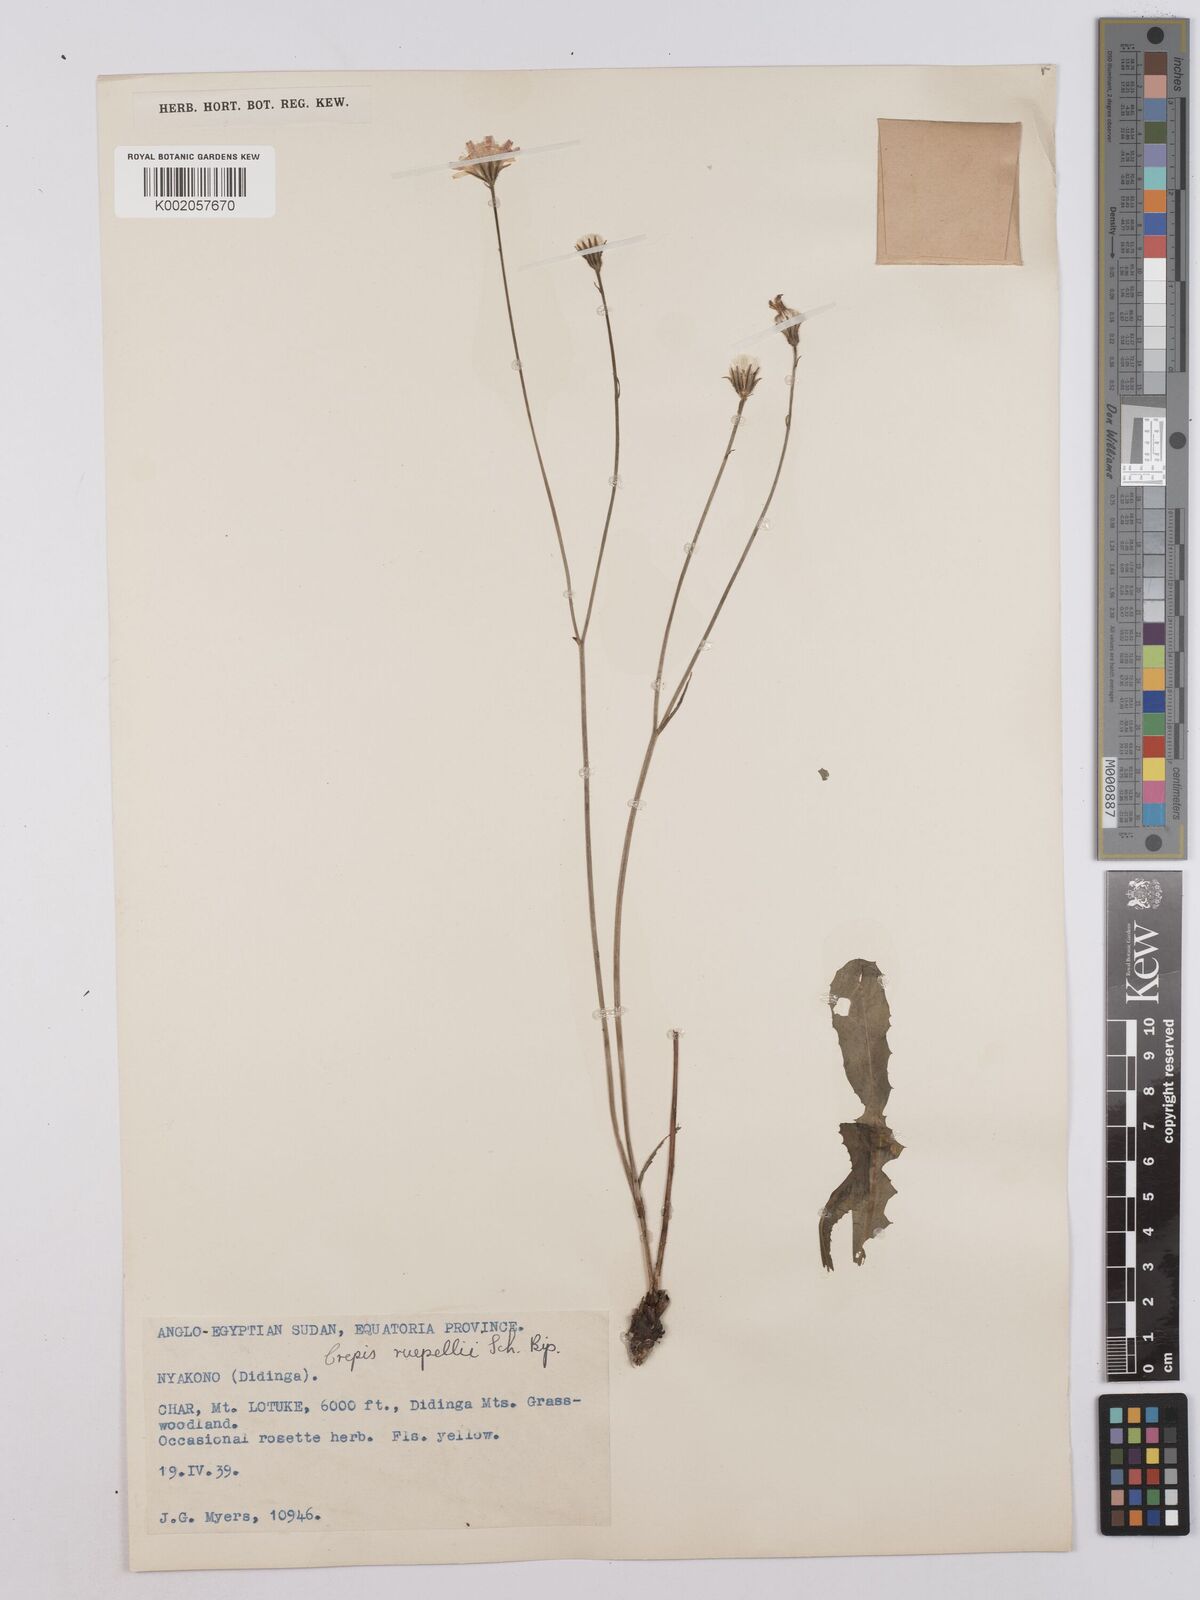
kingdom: Plantae
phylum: Tracheophyta
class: Magnoliopsida
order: Asterales
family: Asteraceae
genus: Crepis
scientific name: Crepis rueppellii
